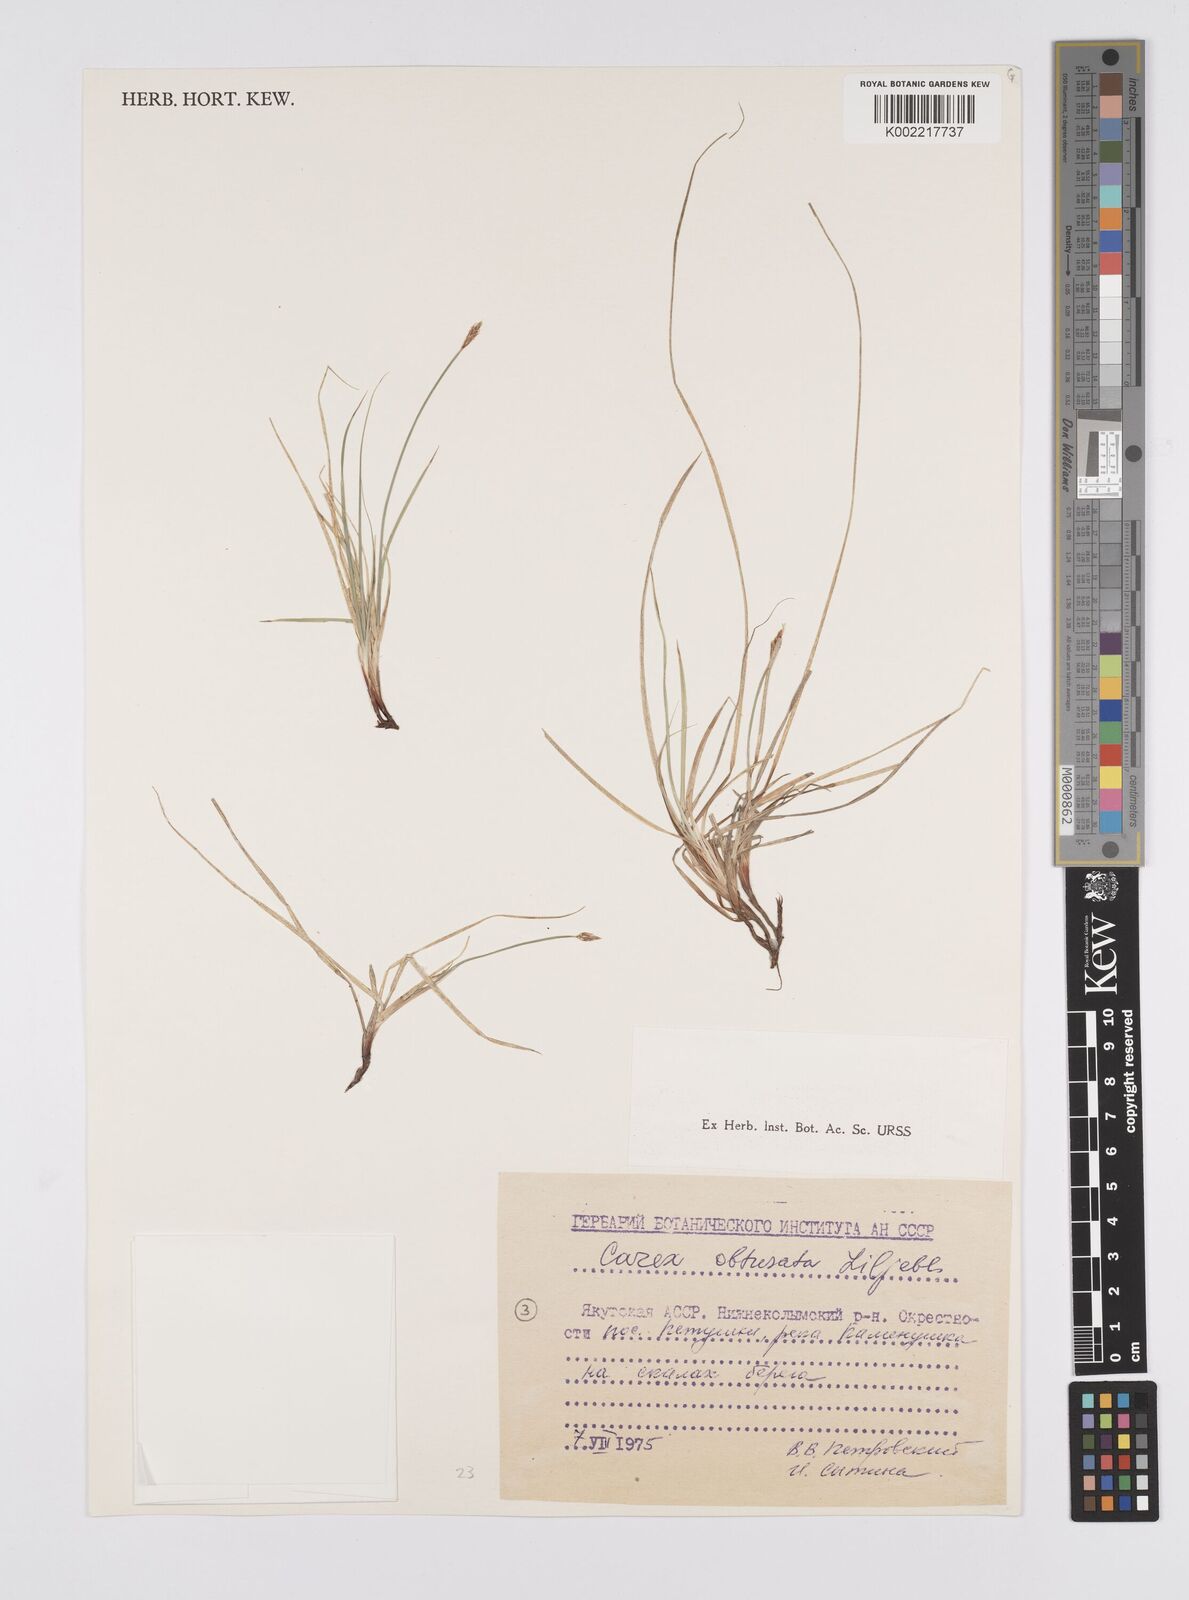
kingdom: Plantae
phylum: Tracheophyta
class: Liliopsida
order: Poales
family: Cyperaceae
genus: Carex
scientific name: Carex obtusata
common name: Blunt sedge
